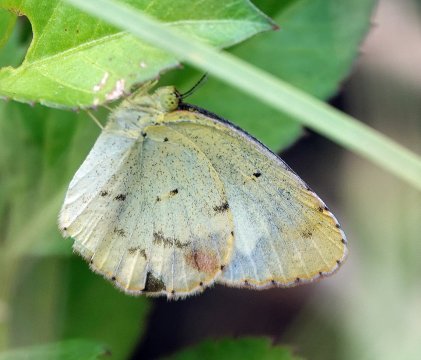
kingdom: Animalia
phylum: Arthropoda
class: Insecta
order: Lepidoptera
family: Pieridae
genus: Pyrisitia
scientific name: Pyrisitia lisa
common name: Little Yellow
